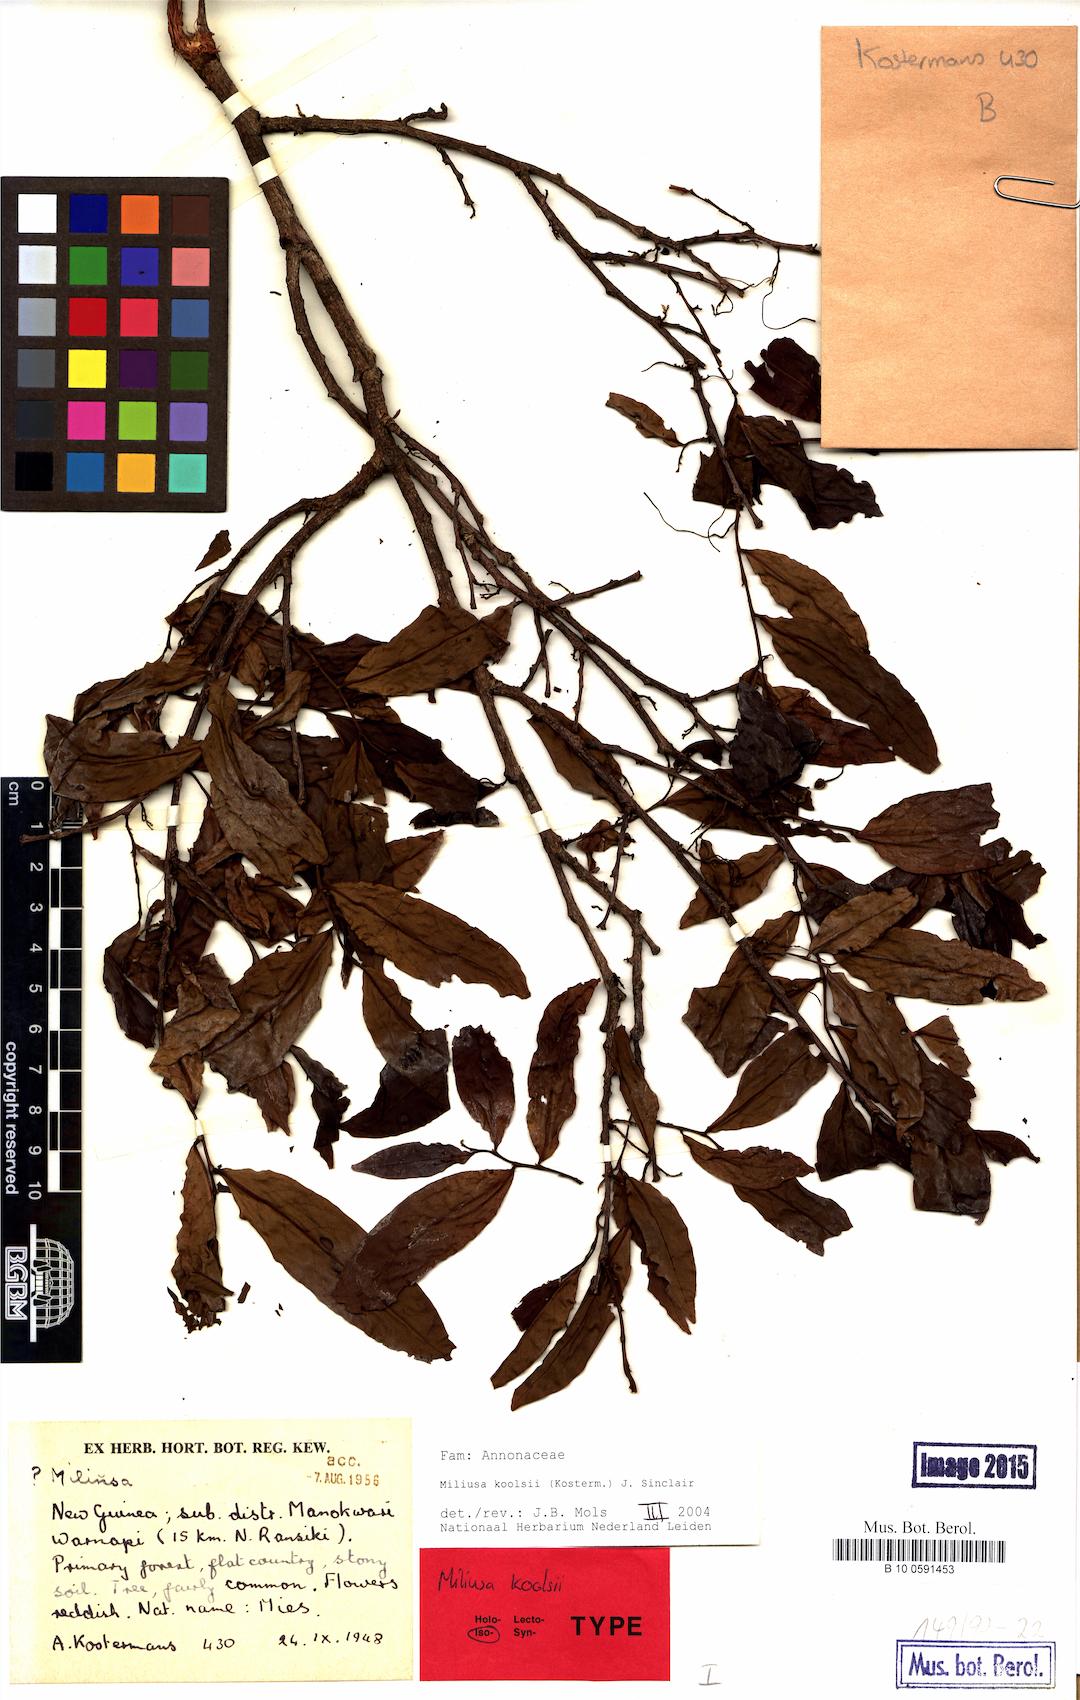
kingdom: Plantae
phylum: Tracheophyta
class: Magnoliopsida
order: Magnoliales
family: Annonaceae
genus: Miliusa
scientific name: Miliusa koolsii
